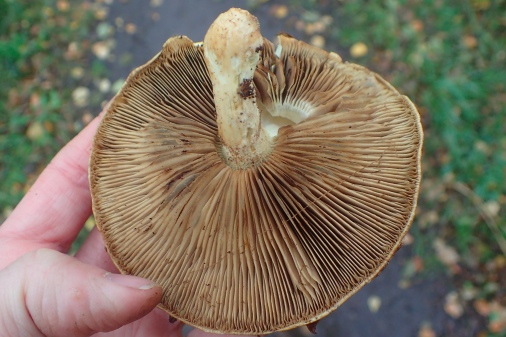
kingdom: Fungi
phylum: Basidiomycota
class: Agaricomycetes
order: Agaricales
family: Strophariaceae
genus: Pholiota
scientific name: Pholiota heteroclita
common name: duftende kæmpeskælhat
